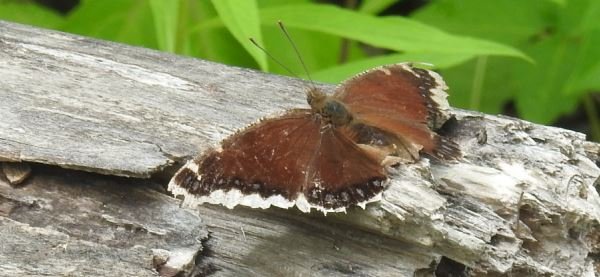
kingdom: Animalia
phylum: Arthropoda
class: Insecta
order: Lepidoptera
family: Nymphalidae
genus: Nymphalis
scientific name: Nymphalis antiopa
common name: Mourning Cloak
